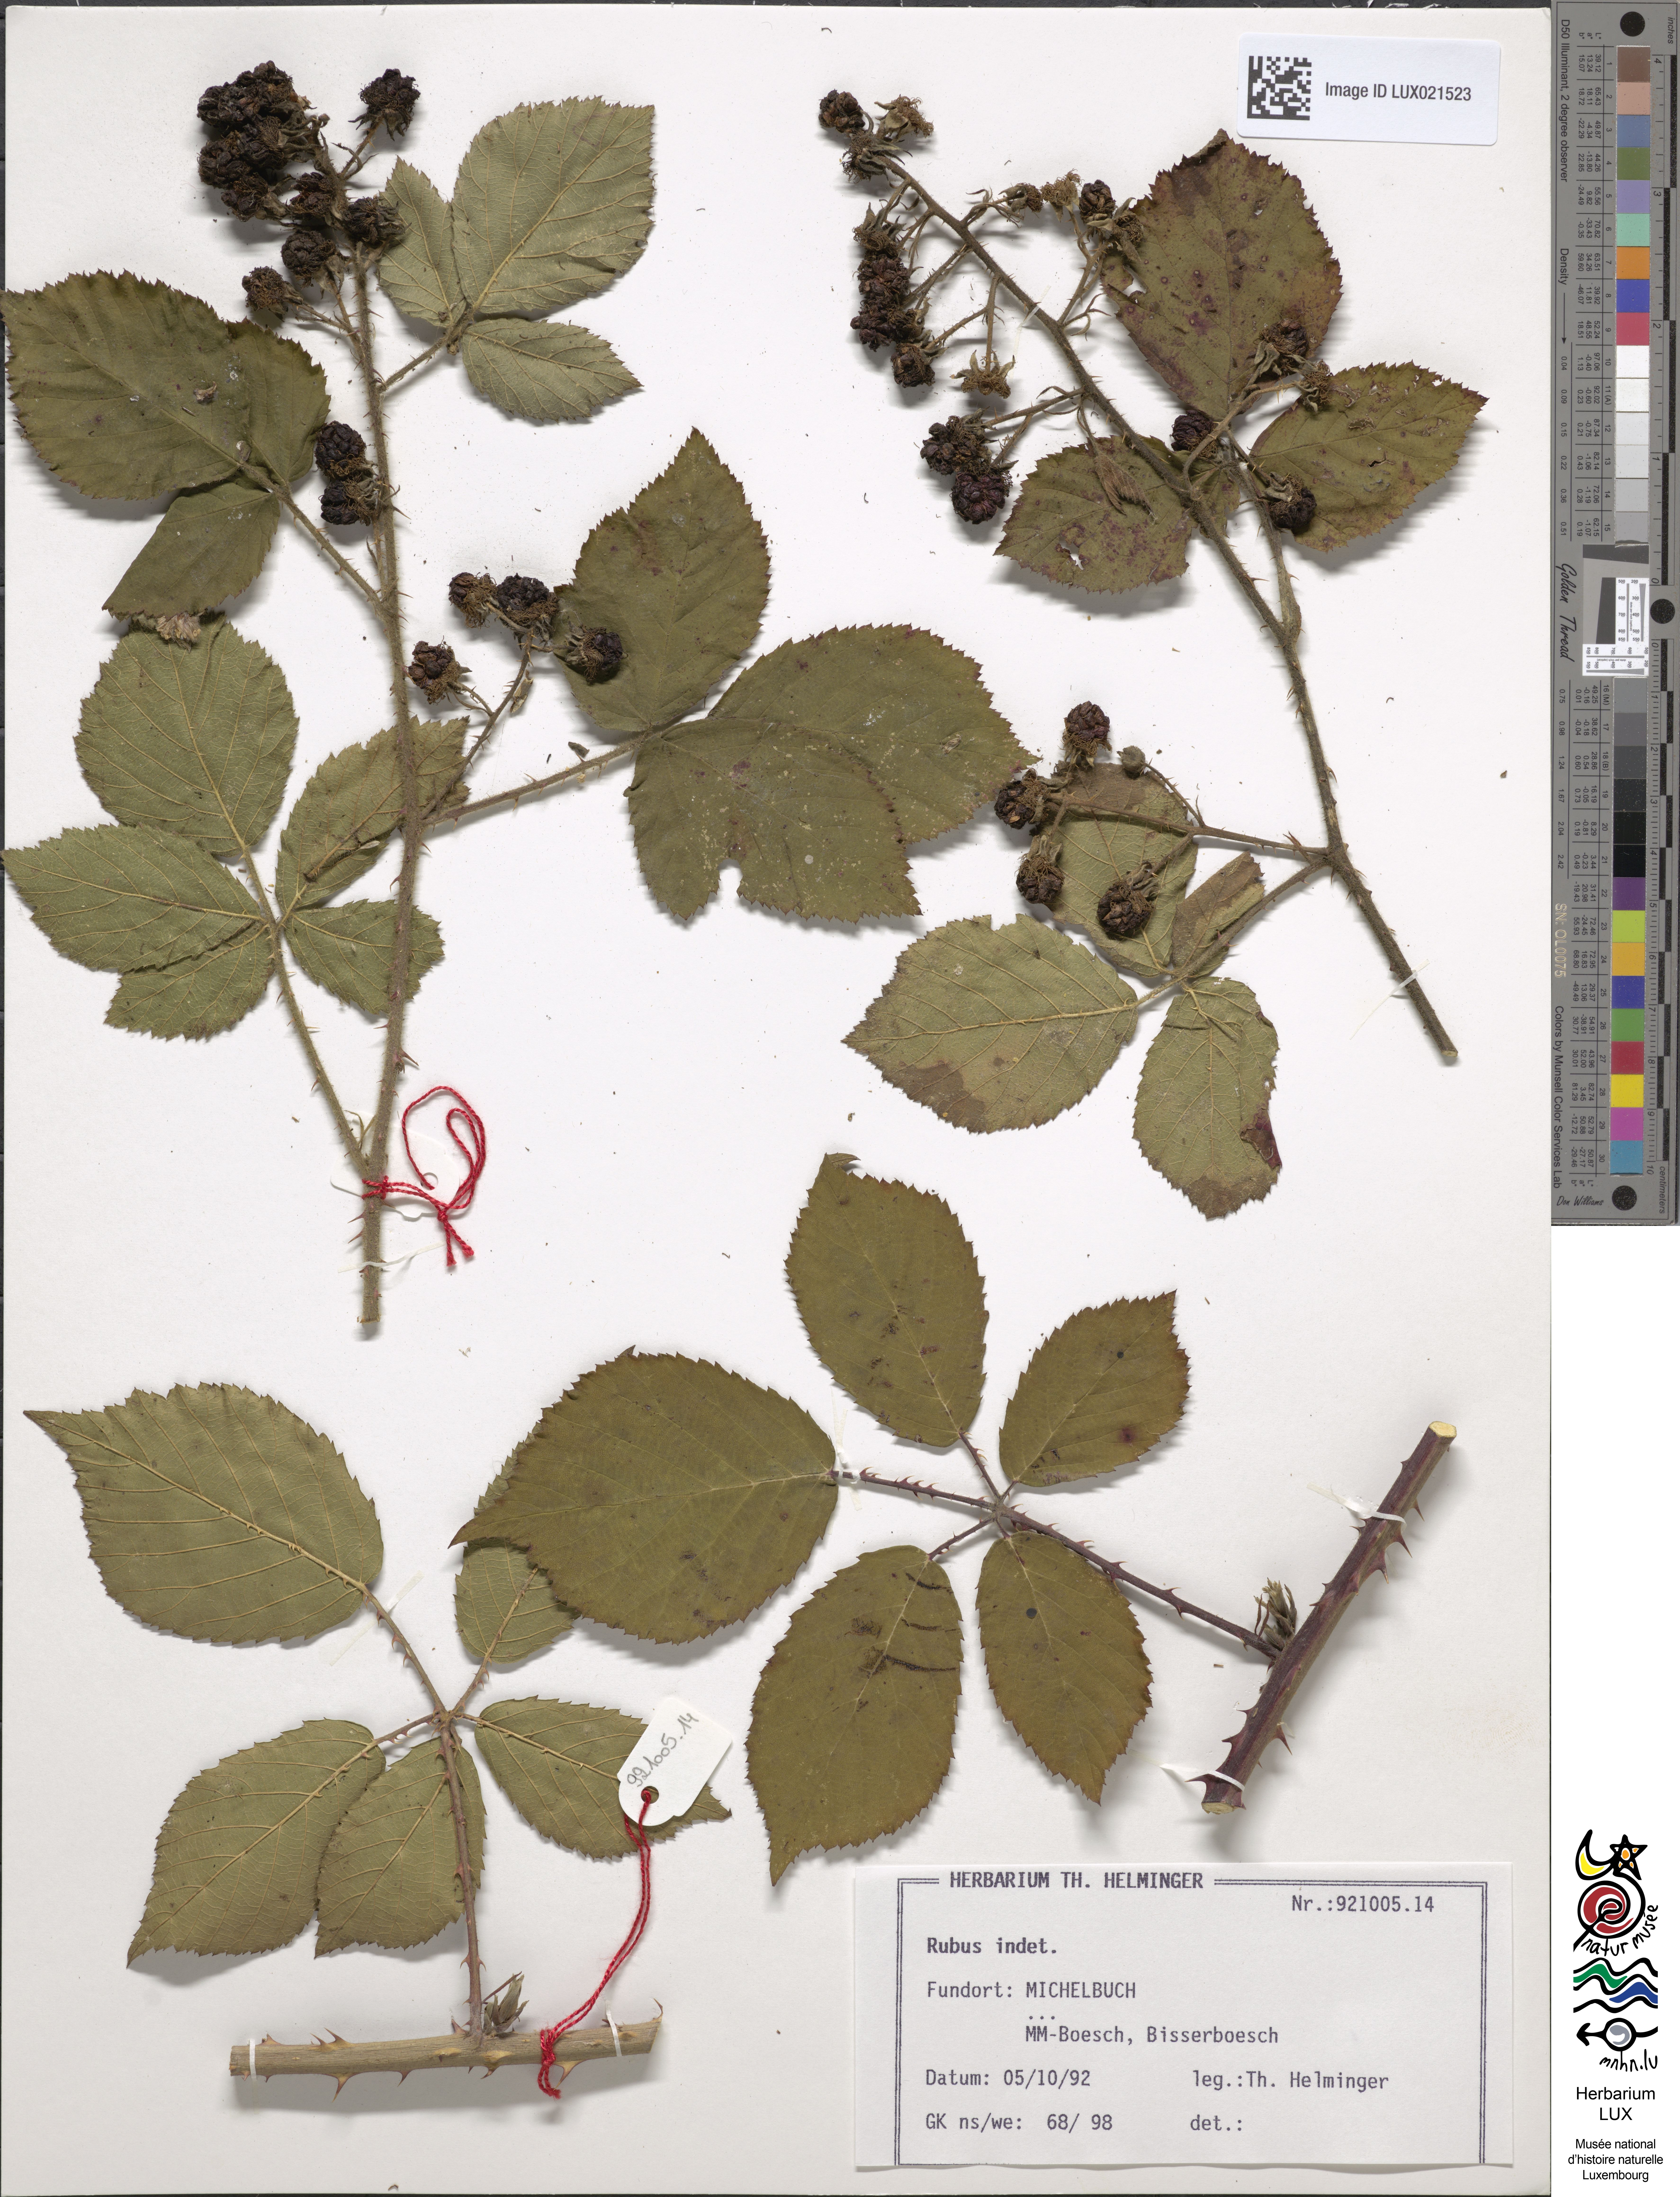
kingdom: Plantae
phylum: Tracheophyta
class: Magnoliopsida
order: Rosales
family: Rosaceae
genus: Rubus
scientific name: Rubus
